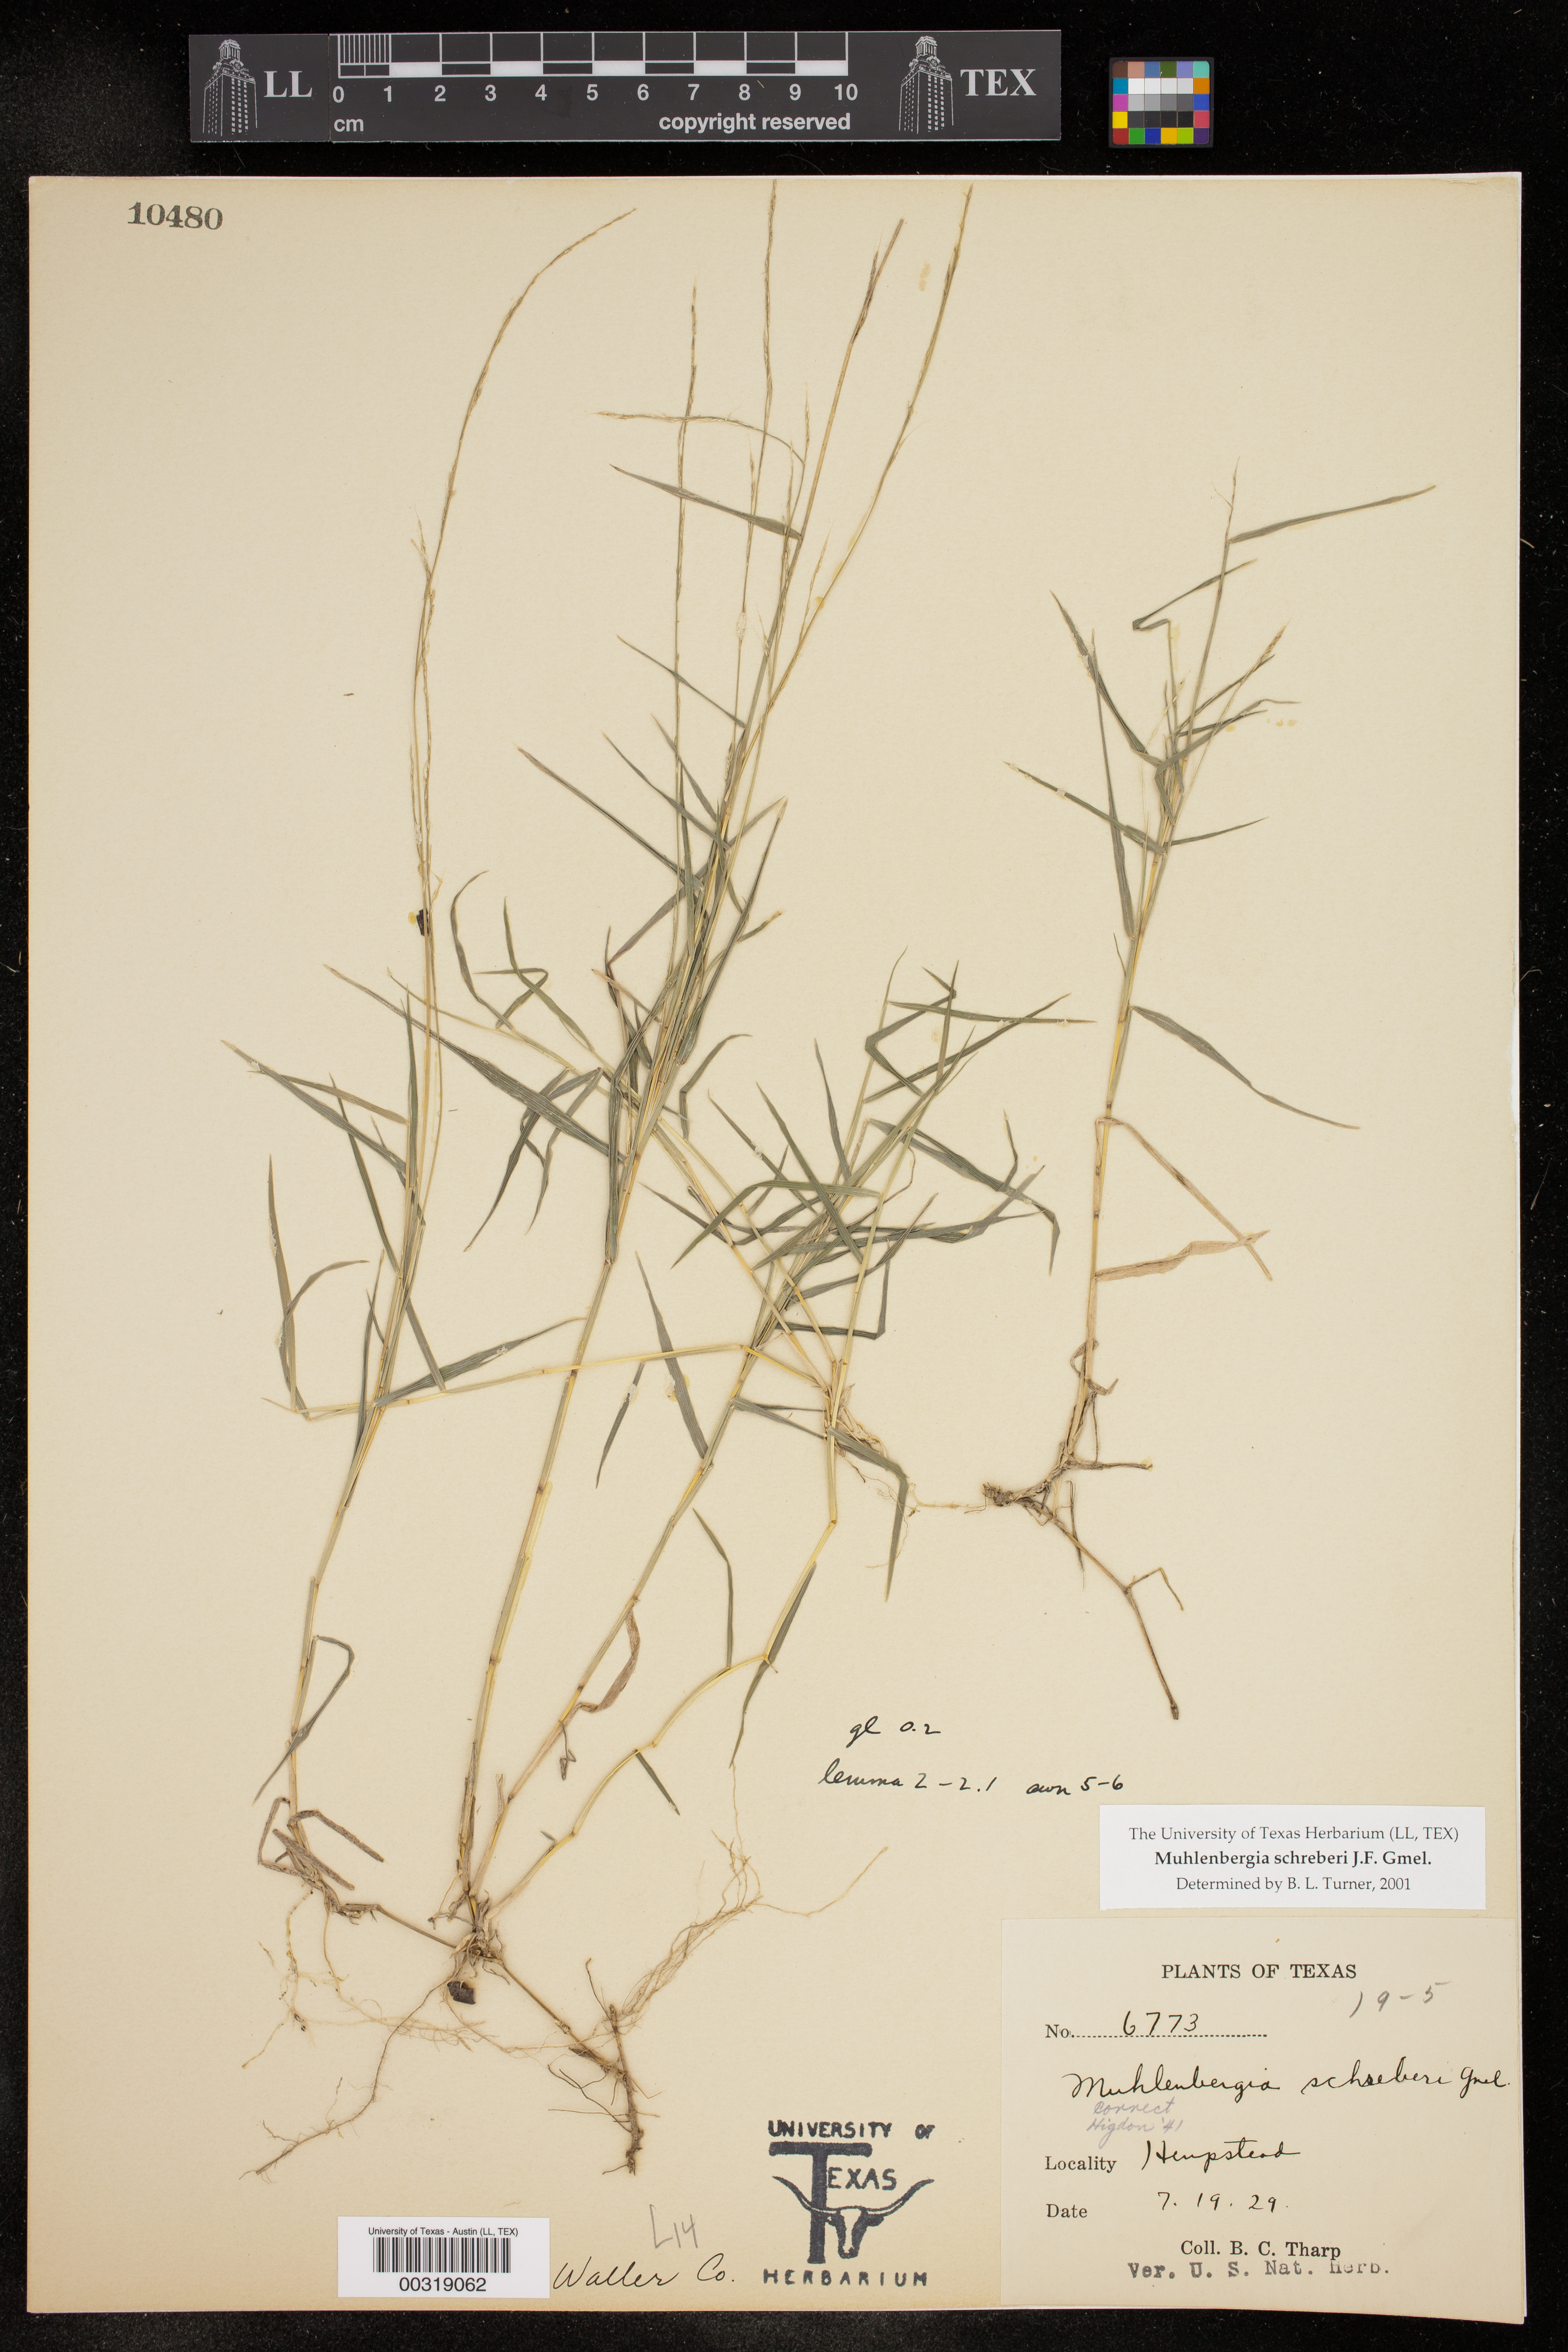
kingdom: Plantae
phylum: Tracheophyta
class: Liliopsida
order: Poales
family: Poaceae
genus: Muhlenbergia
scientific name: Muhlenbergia schreberi
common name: Nimblewill
